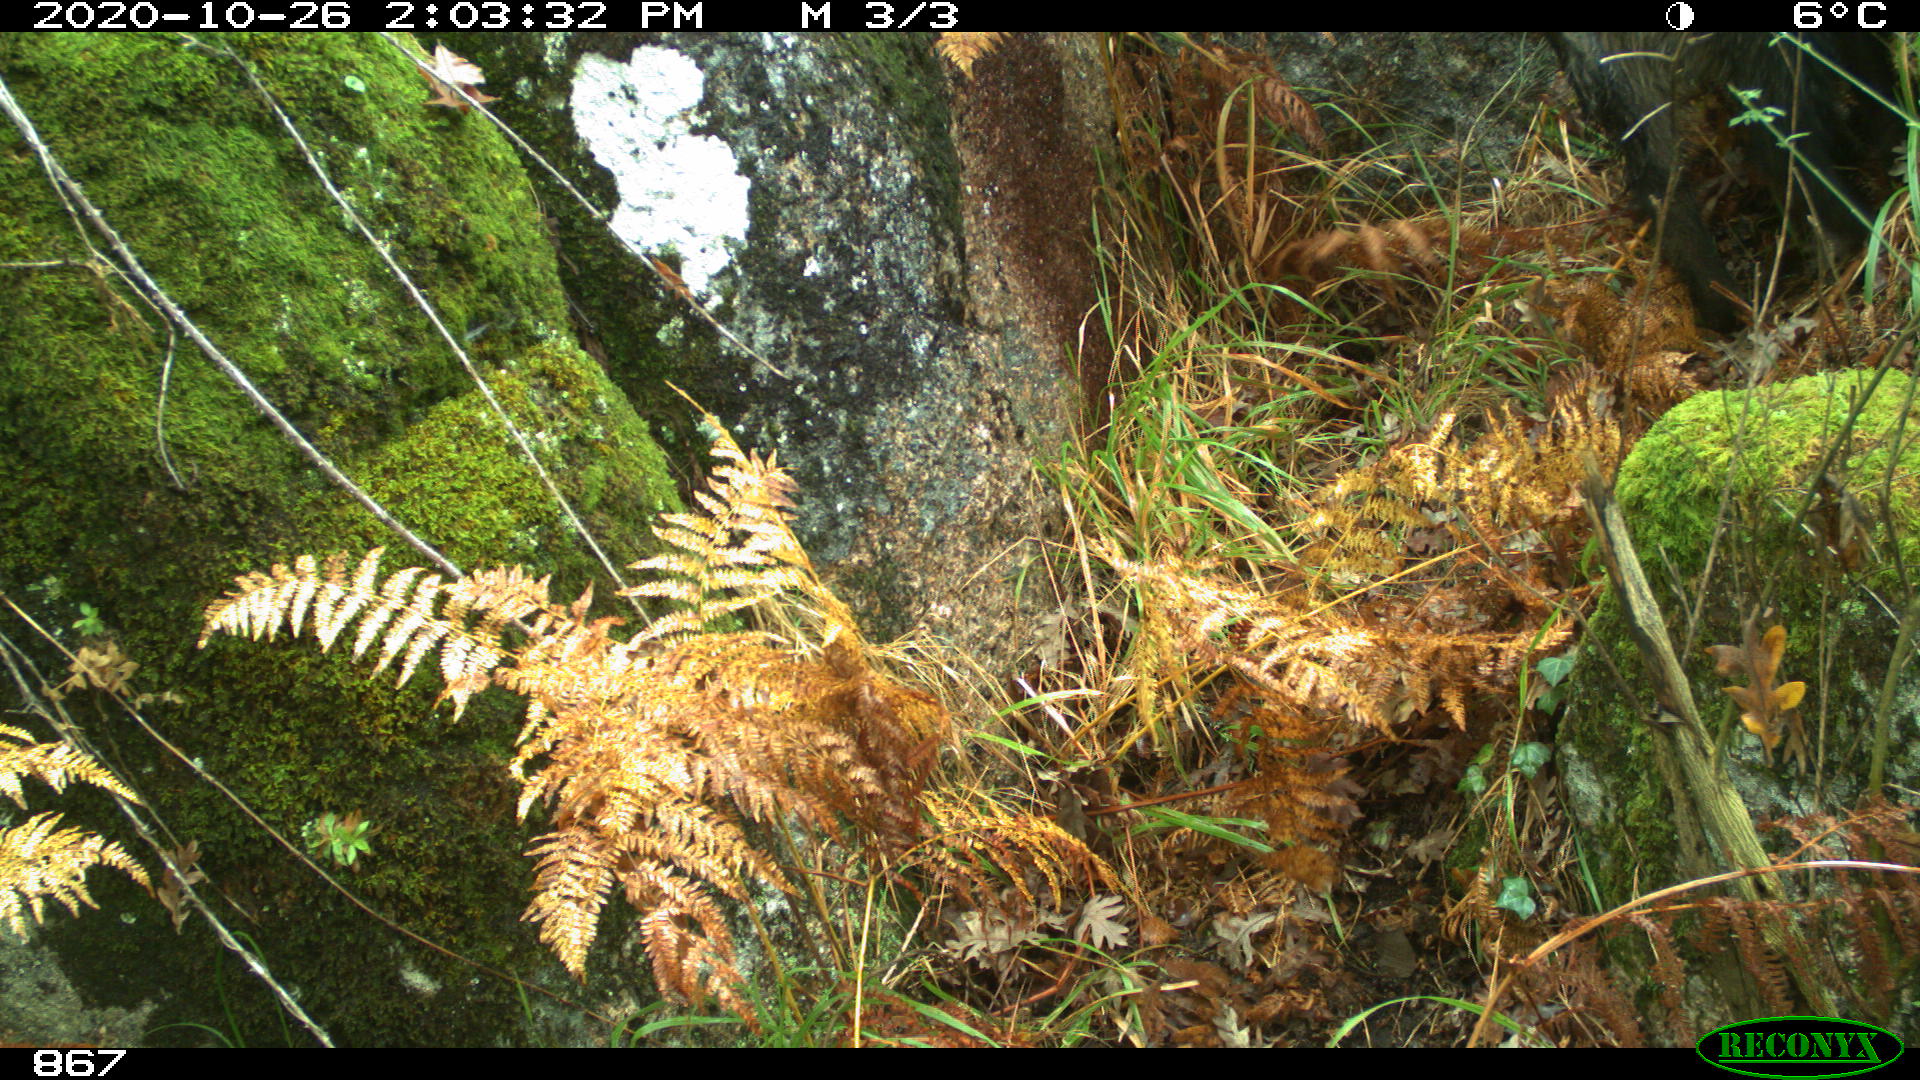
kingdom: Animalia
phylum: Chordata
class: Mammalia
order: Artiodactyla
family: Suidae
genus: Sus
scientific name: Sus scrofa
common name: Wild boar
